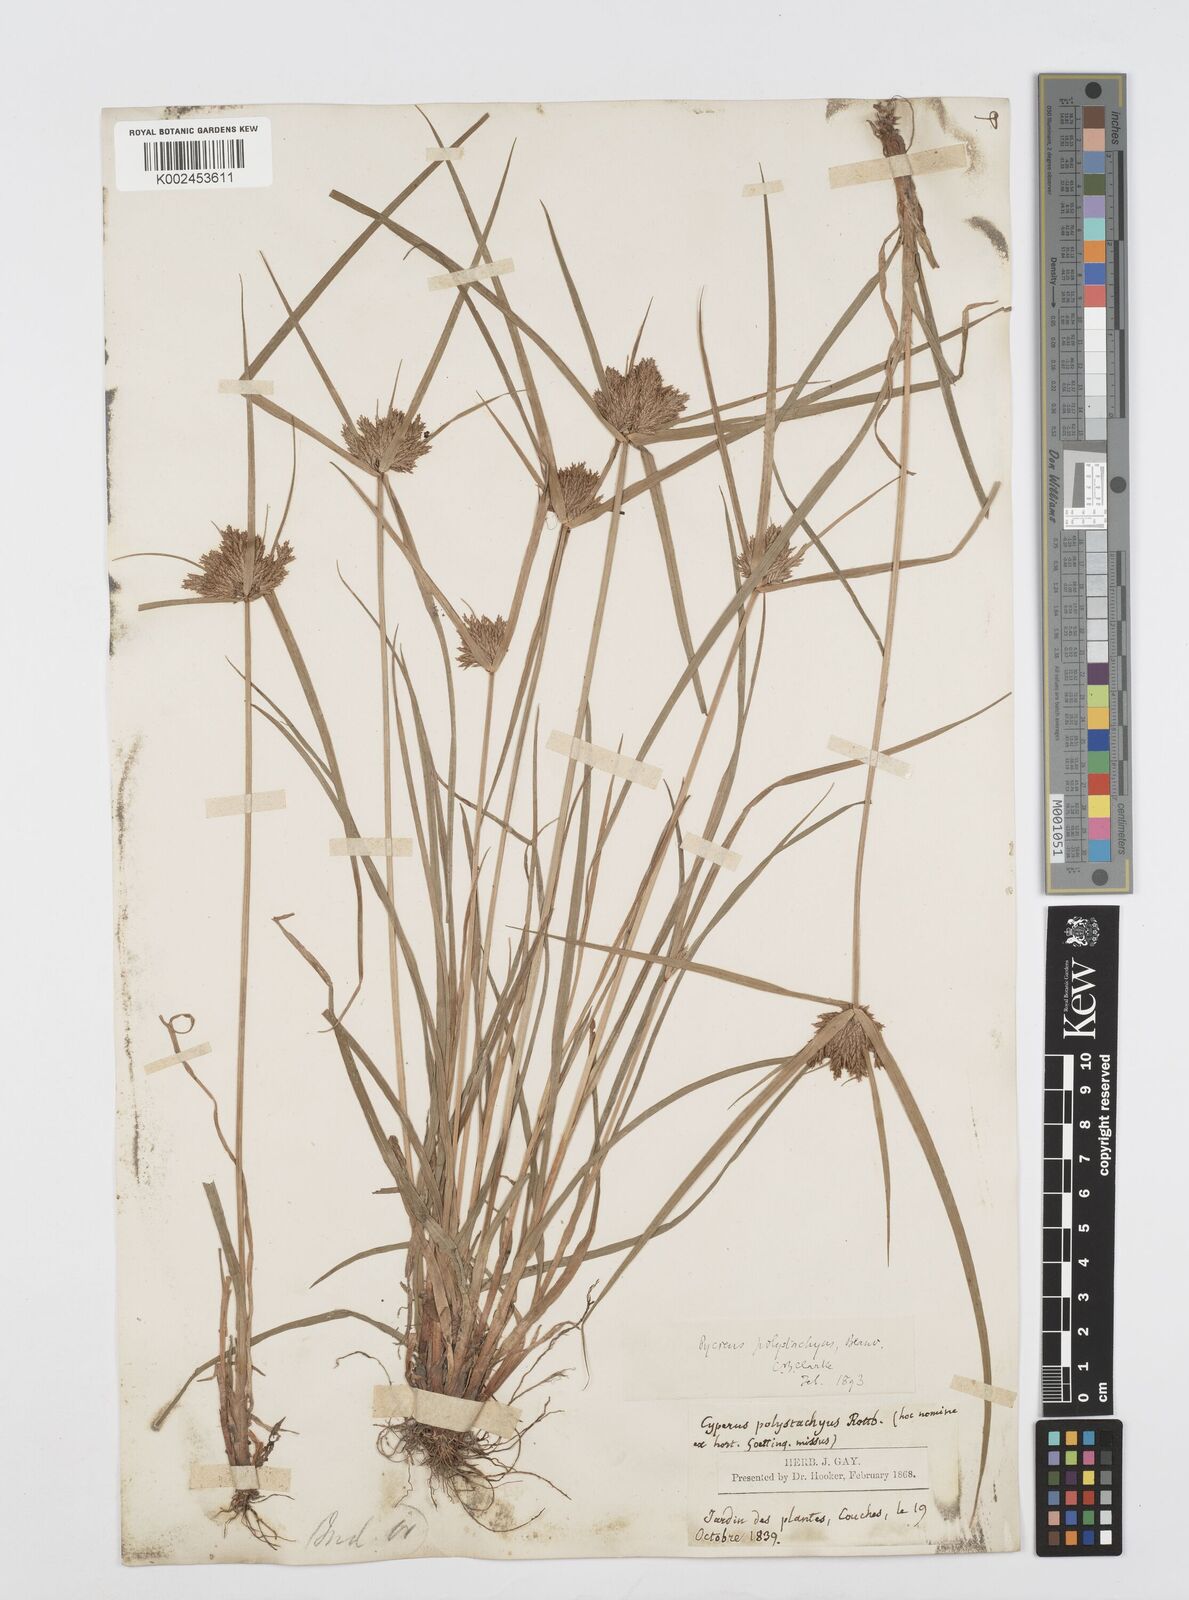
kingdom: Plantae
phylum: Tracheophyta
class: Liliopsida
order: Poales
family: Cyperaceae
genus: Cyperus
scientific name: Cyperus polystachyos
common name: Bunchy flat sedge
